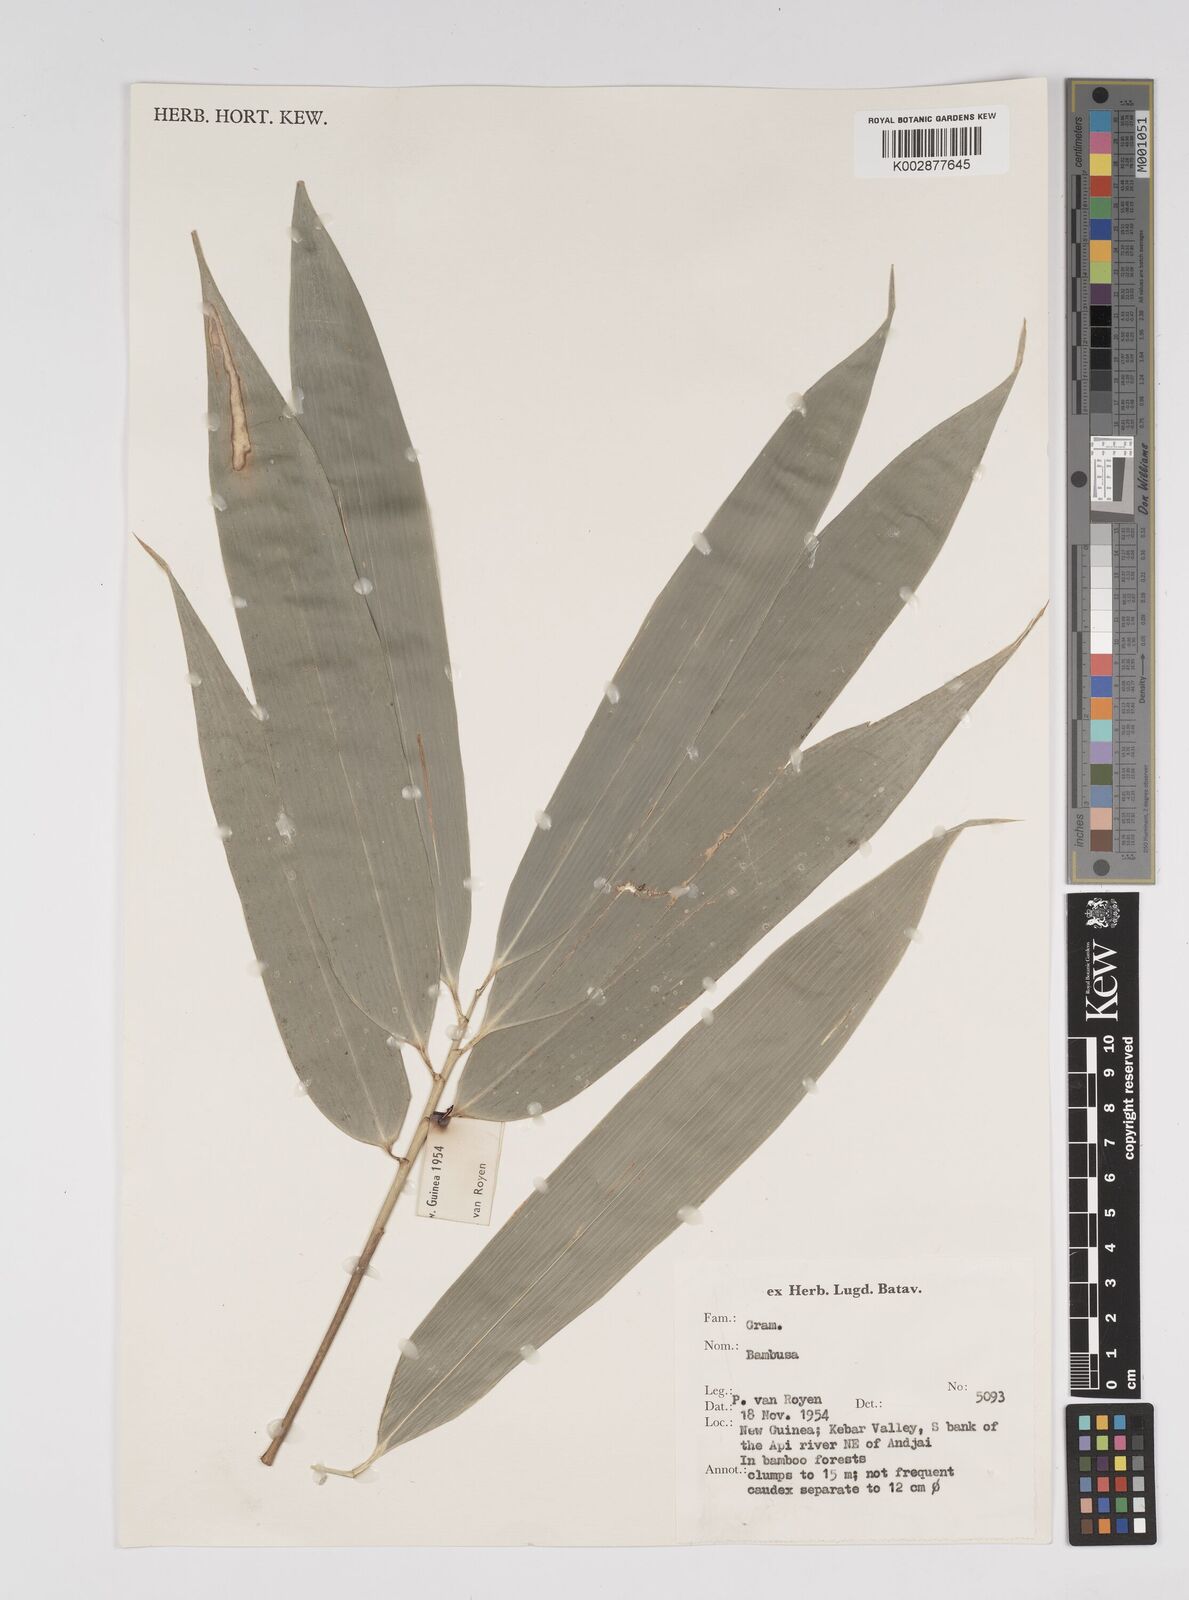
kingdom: Plantae
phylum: Tracheophyta
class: Liliopsida
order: Poales
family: Poaceae
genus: Bambusa
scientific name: Bambusa
